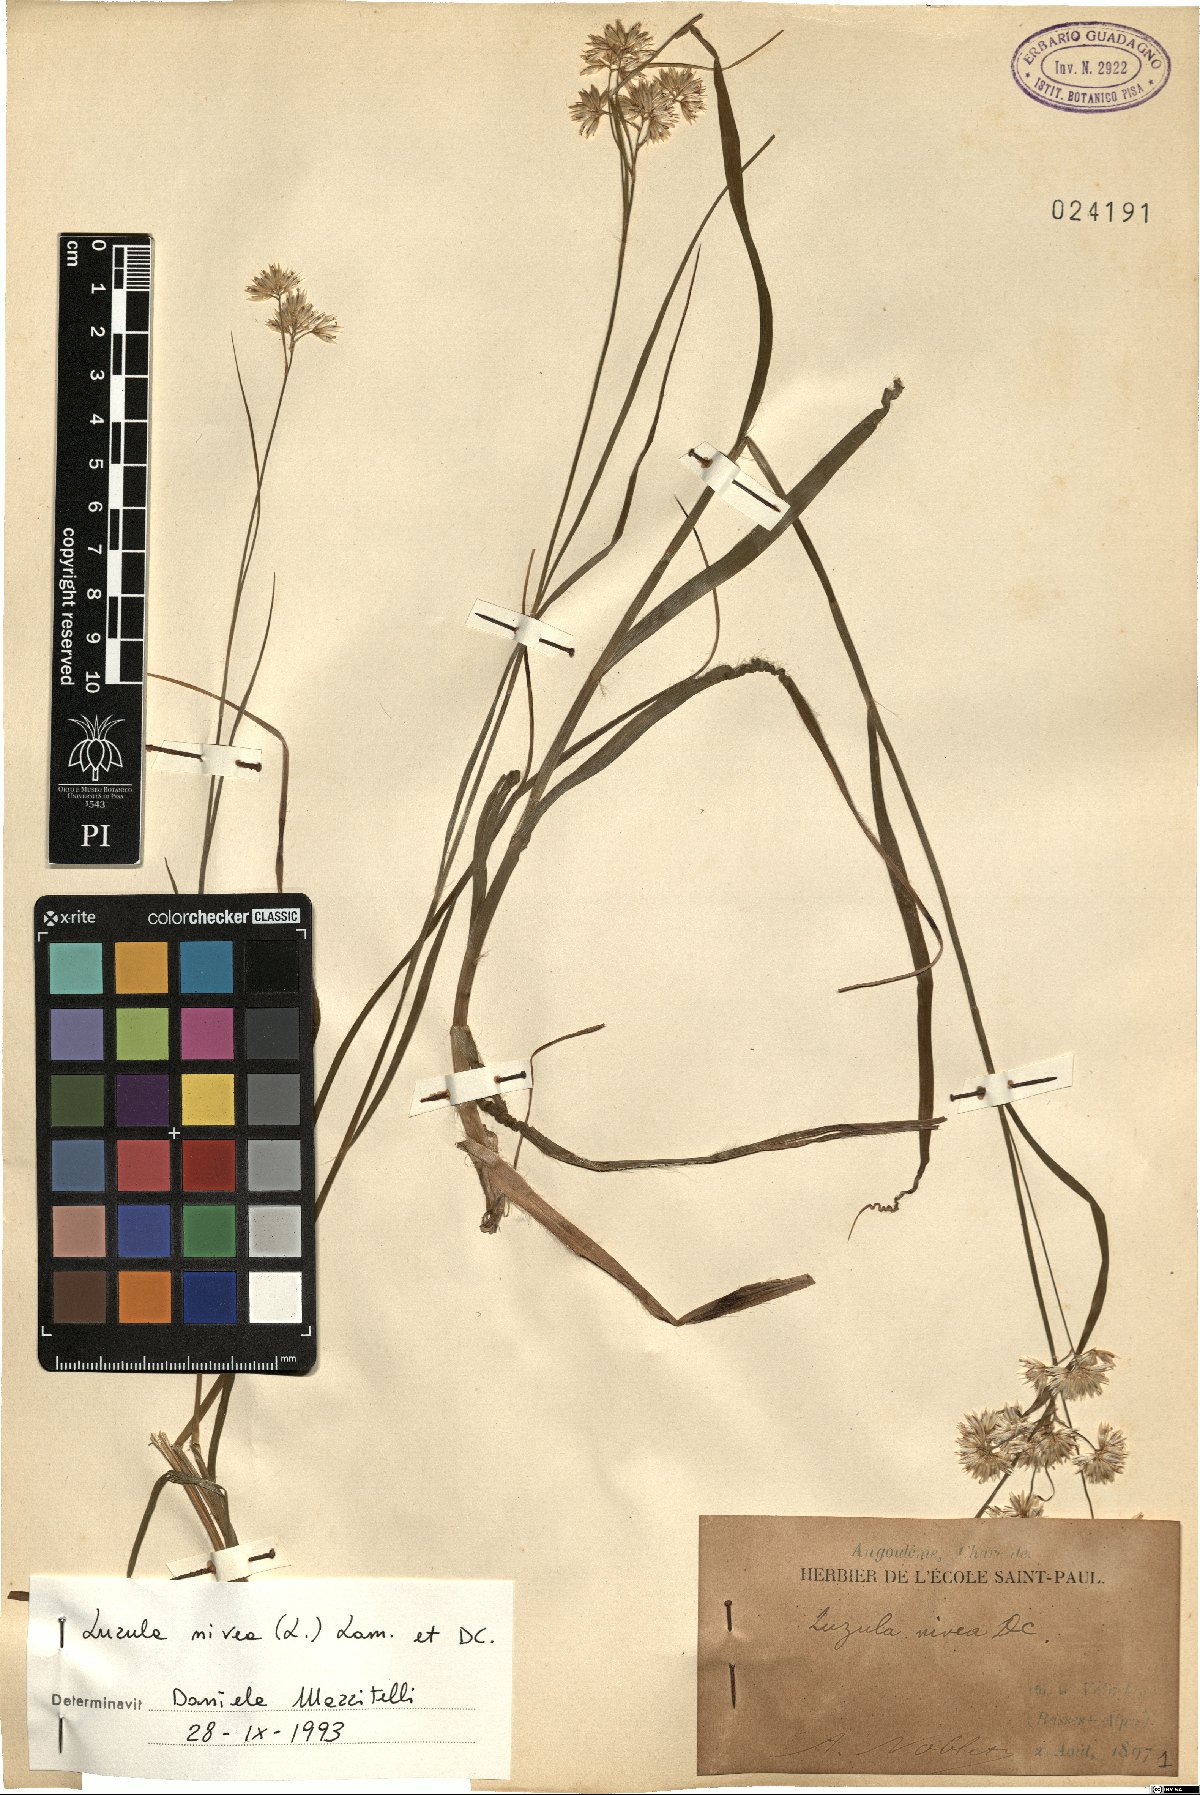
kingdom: Plantae
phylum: Tracheophyta
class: Liliopsida
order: Poales
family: Juncaceae
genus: Luzula
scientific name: Luzula nivea
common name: Snow-white wood-rush
